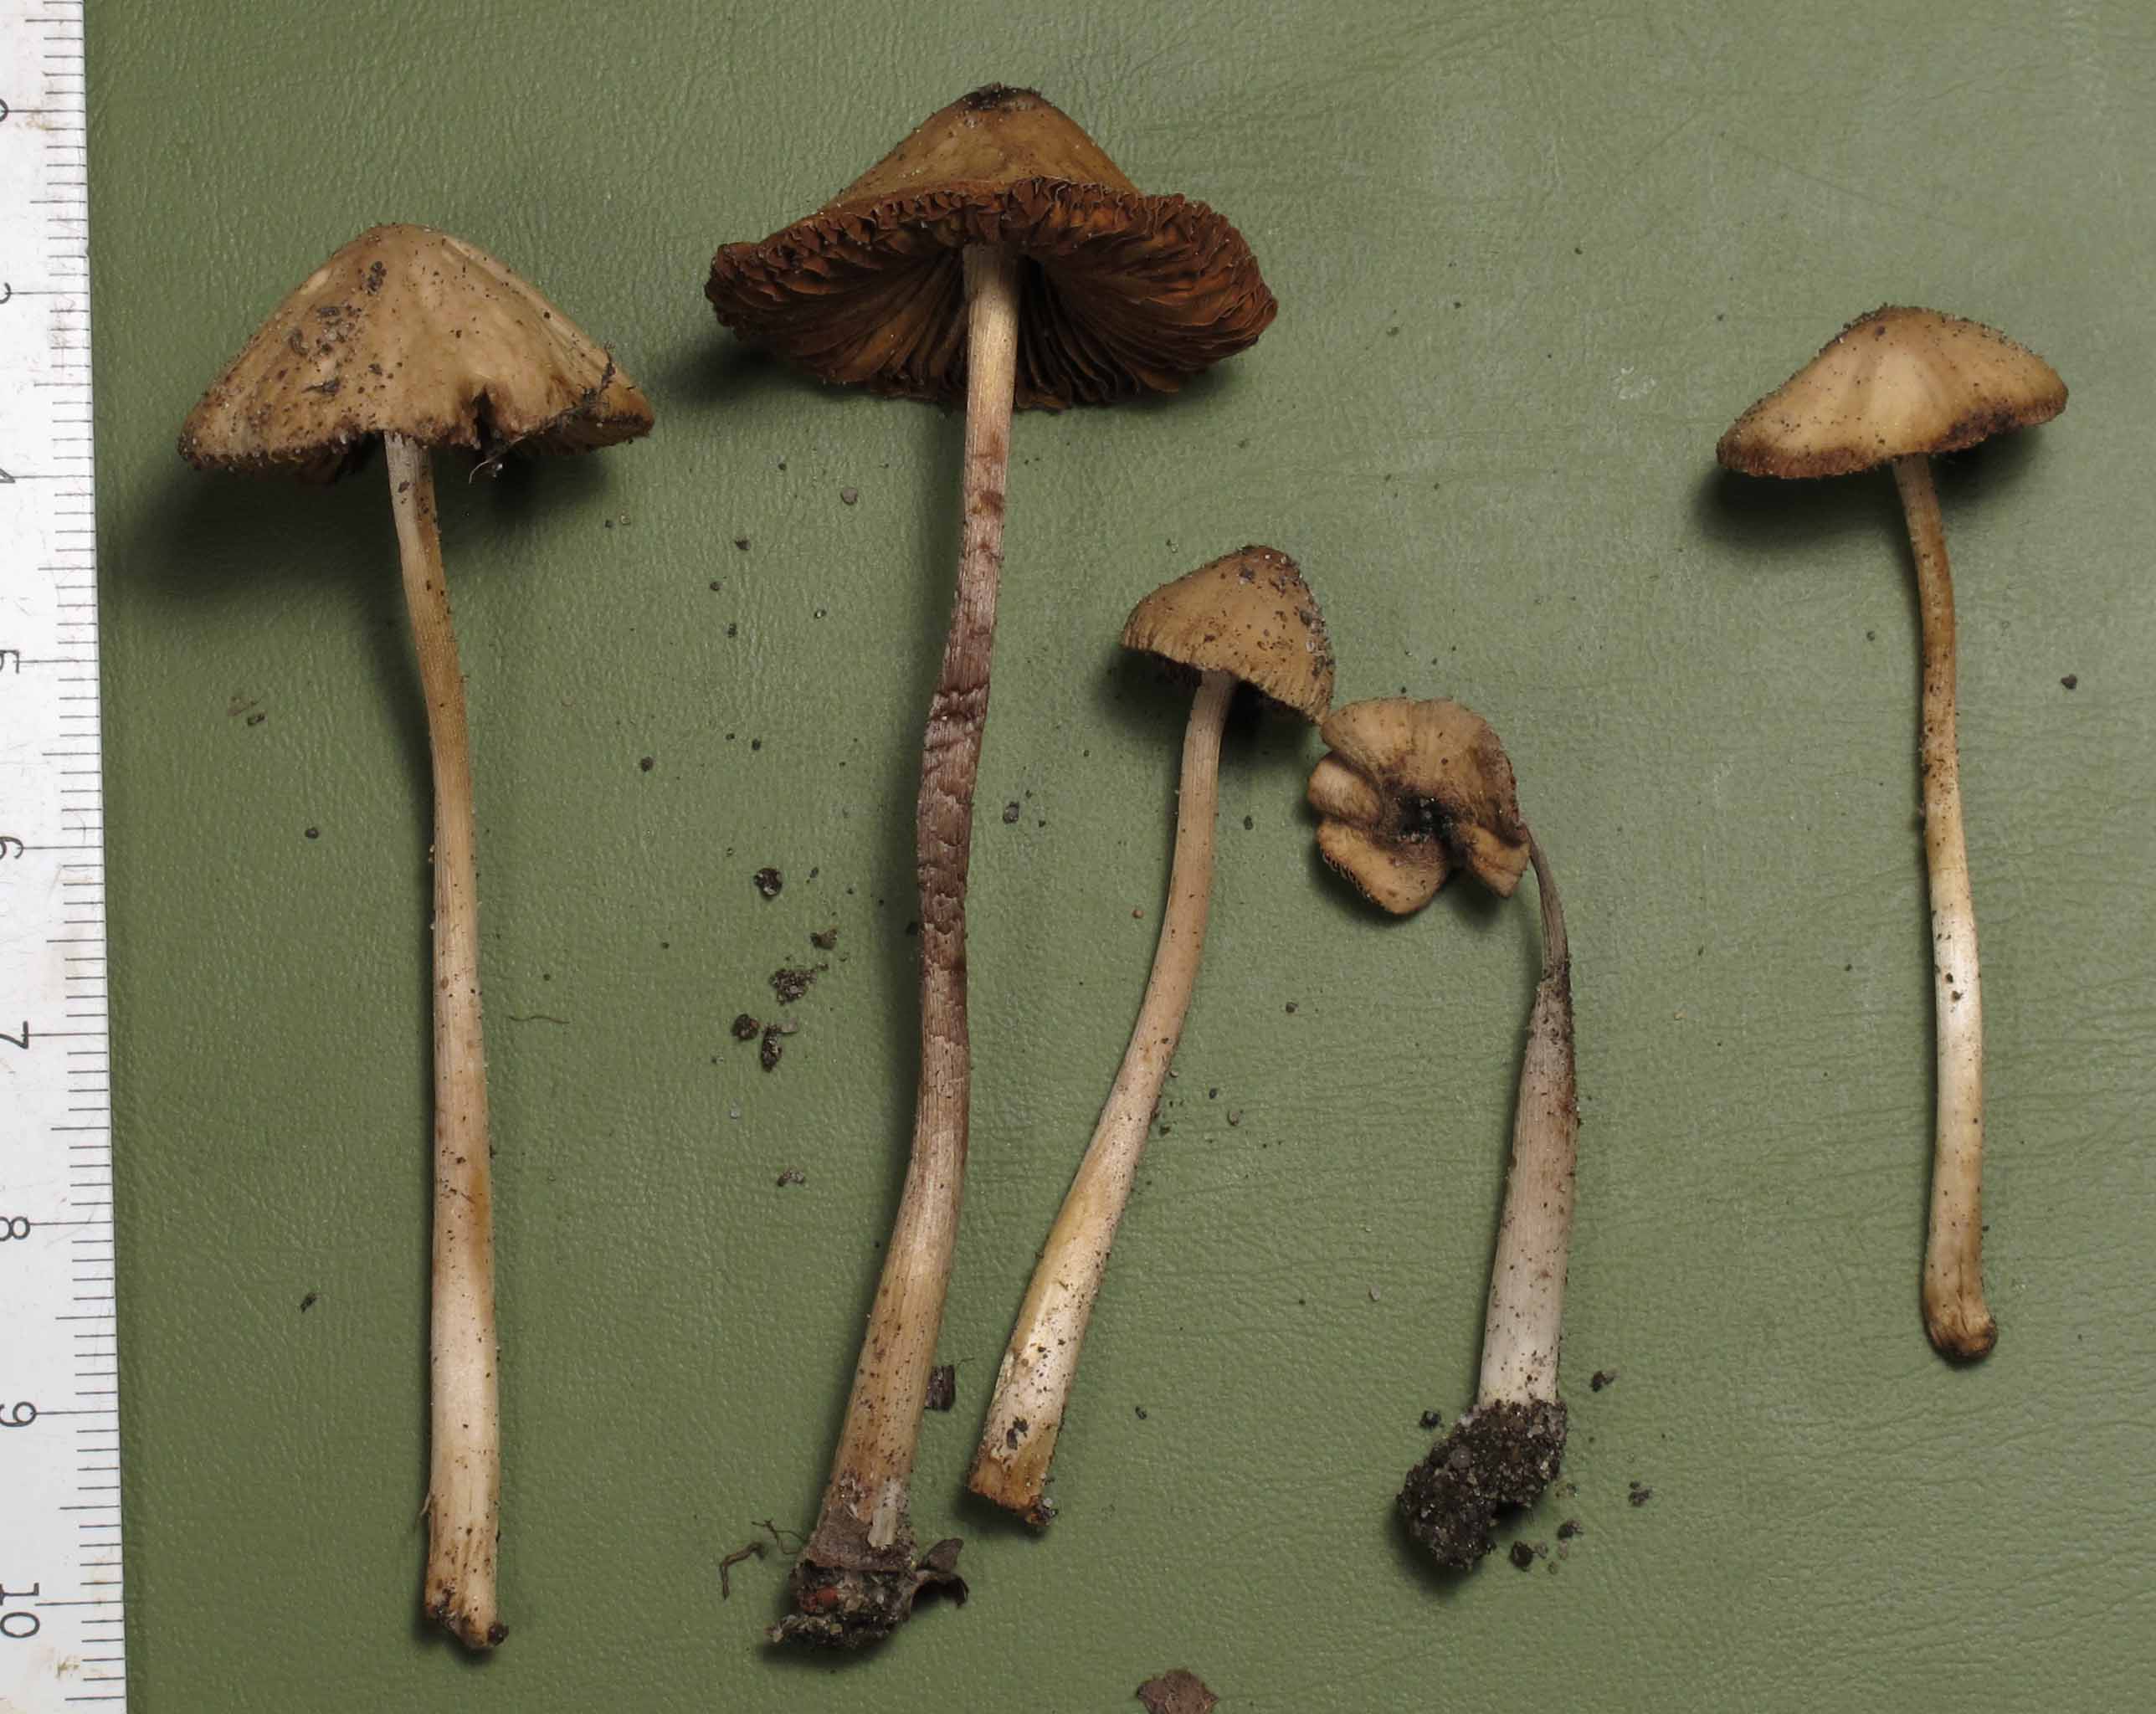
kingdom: Fungi
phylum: Basidiomycota
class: Agaricomycetes
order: Agaricales
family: Bolbitiaceae
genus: Conocybe
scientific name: Conocybe juniana
